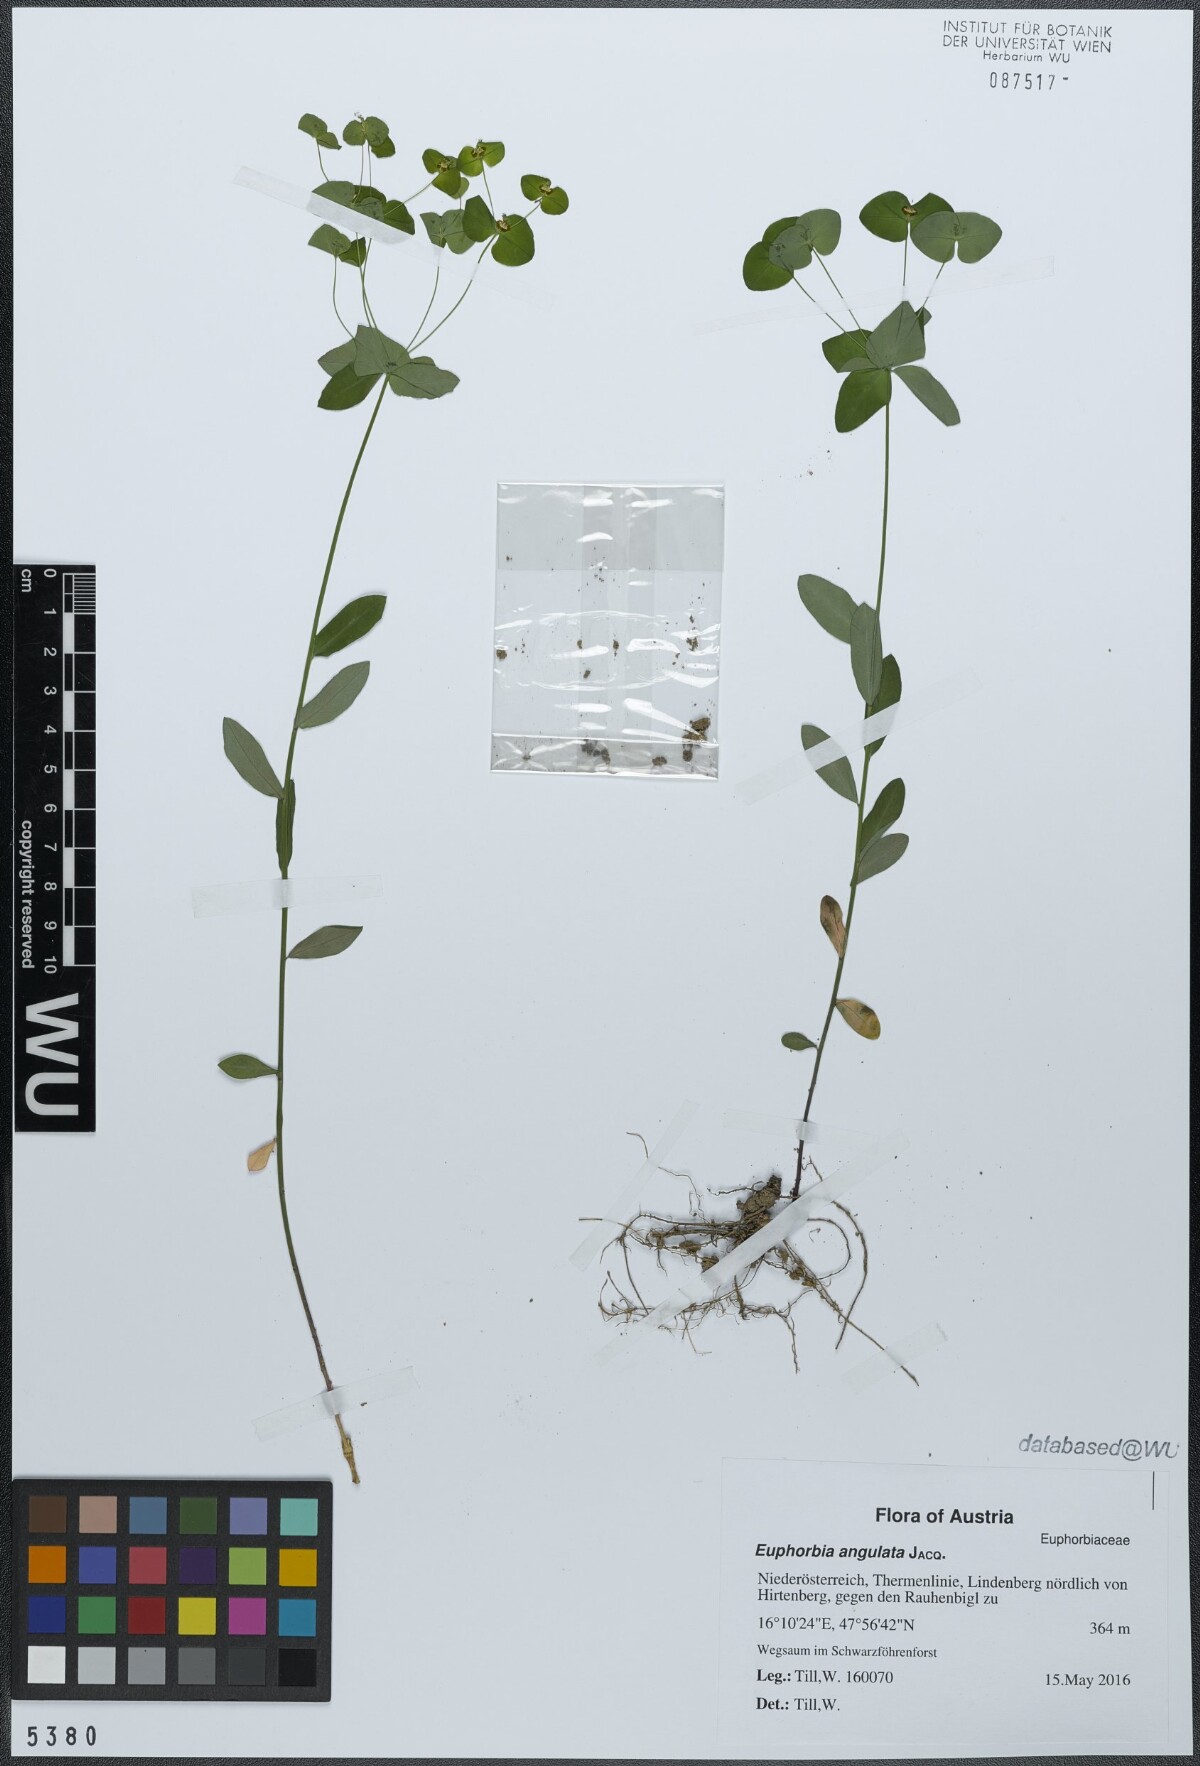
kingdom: Plantae
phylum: Tracheophyta
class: Magnoliopsida
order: Malpighiales
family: Euphorbiaceae
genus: Euphorbia
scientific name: Euphorbia angulata
